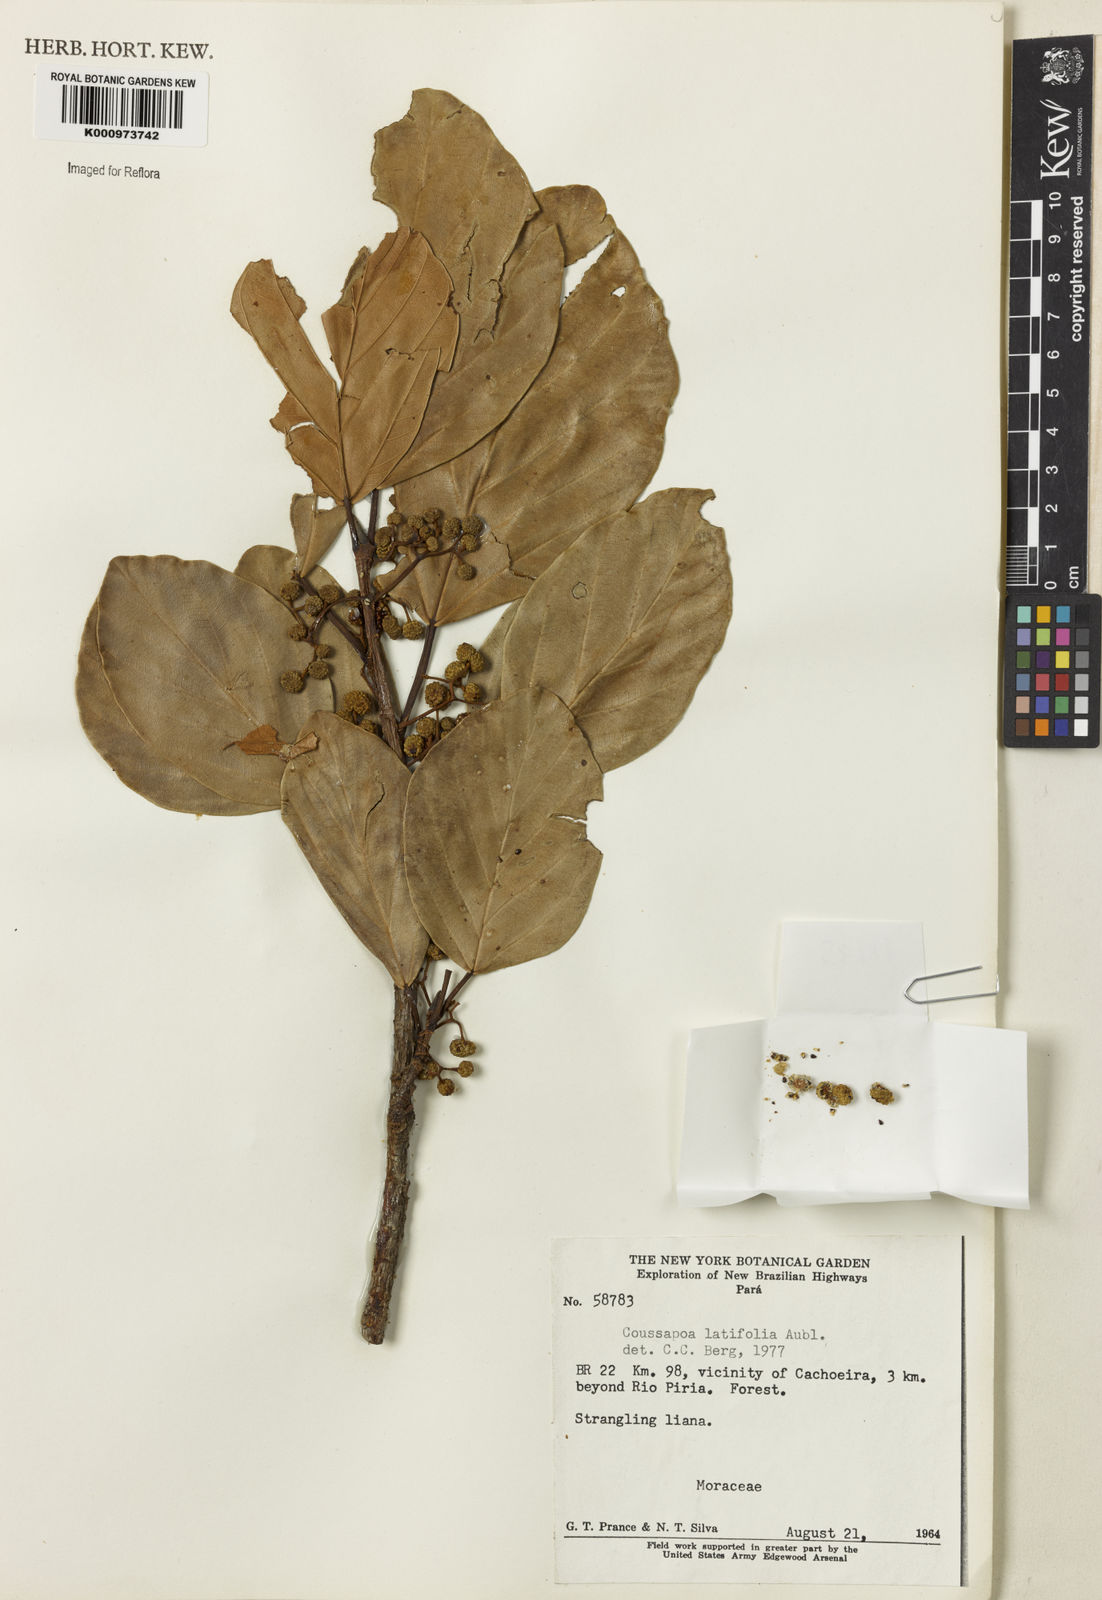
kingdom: Plantae
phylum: Tracheophyta
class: Magnoliopsida
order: Rosales
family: Urticaceae
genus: Coussapoa
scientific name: Coussapoa
